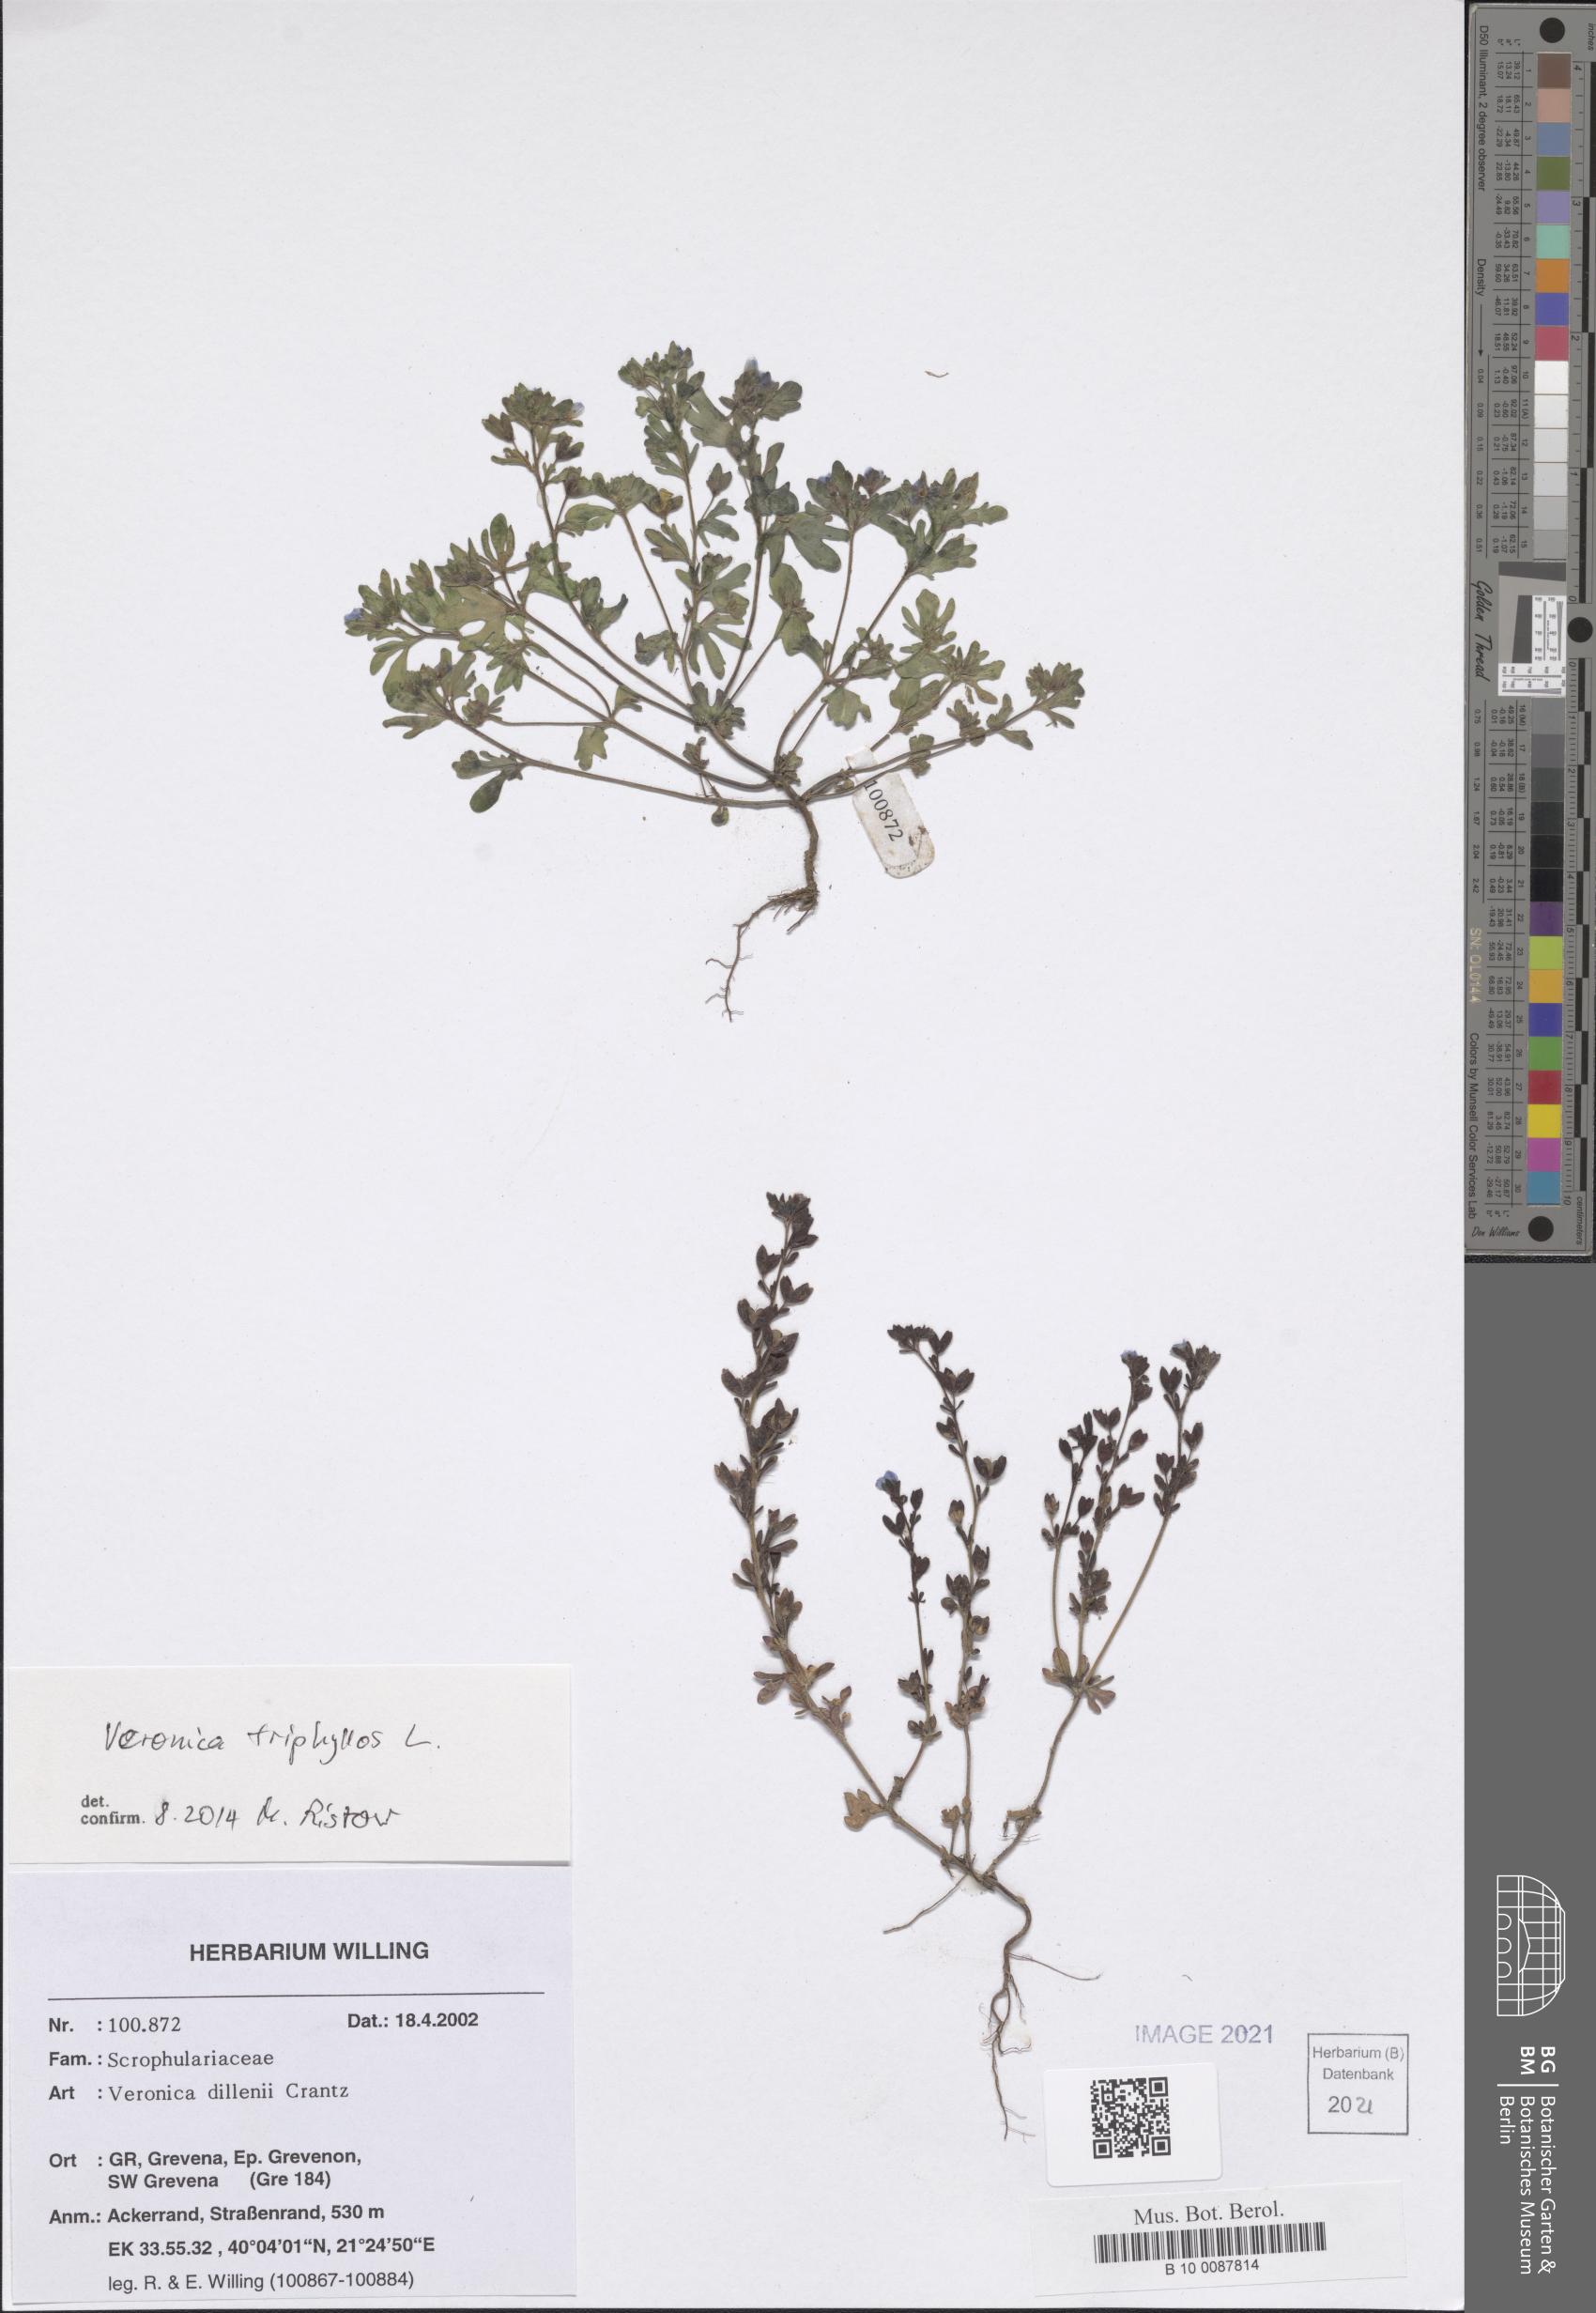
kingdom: Plantae
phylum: Tracheophyta
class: Magnoliopsida
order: Lamiales
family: Plantaginaceae
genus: Veronica
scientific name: Veronica triphyllos
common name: Fingered speedwell
